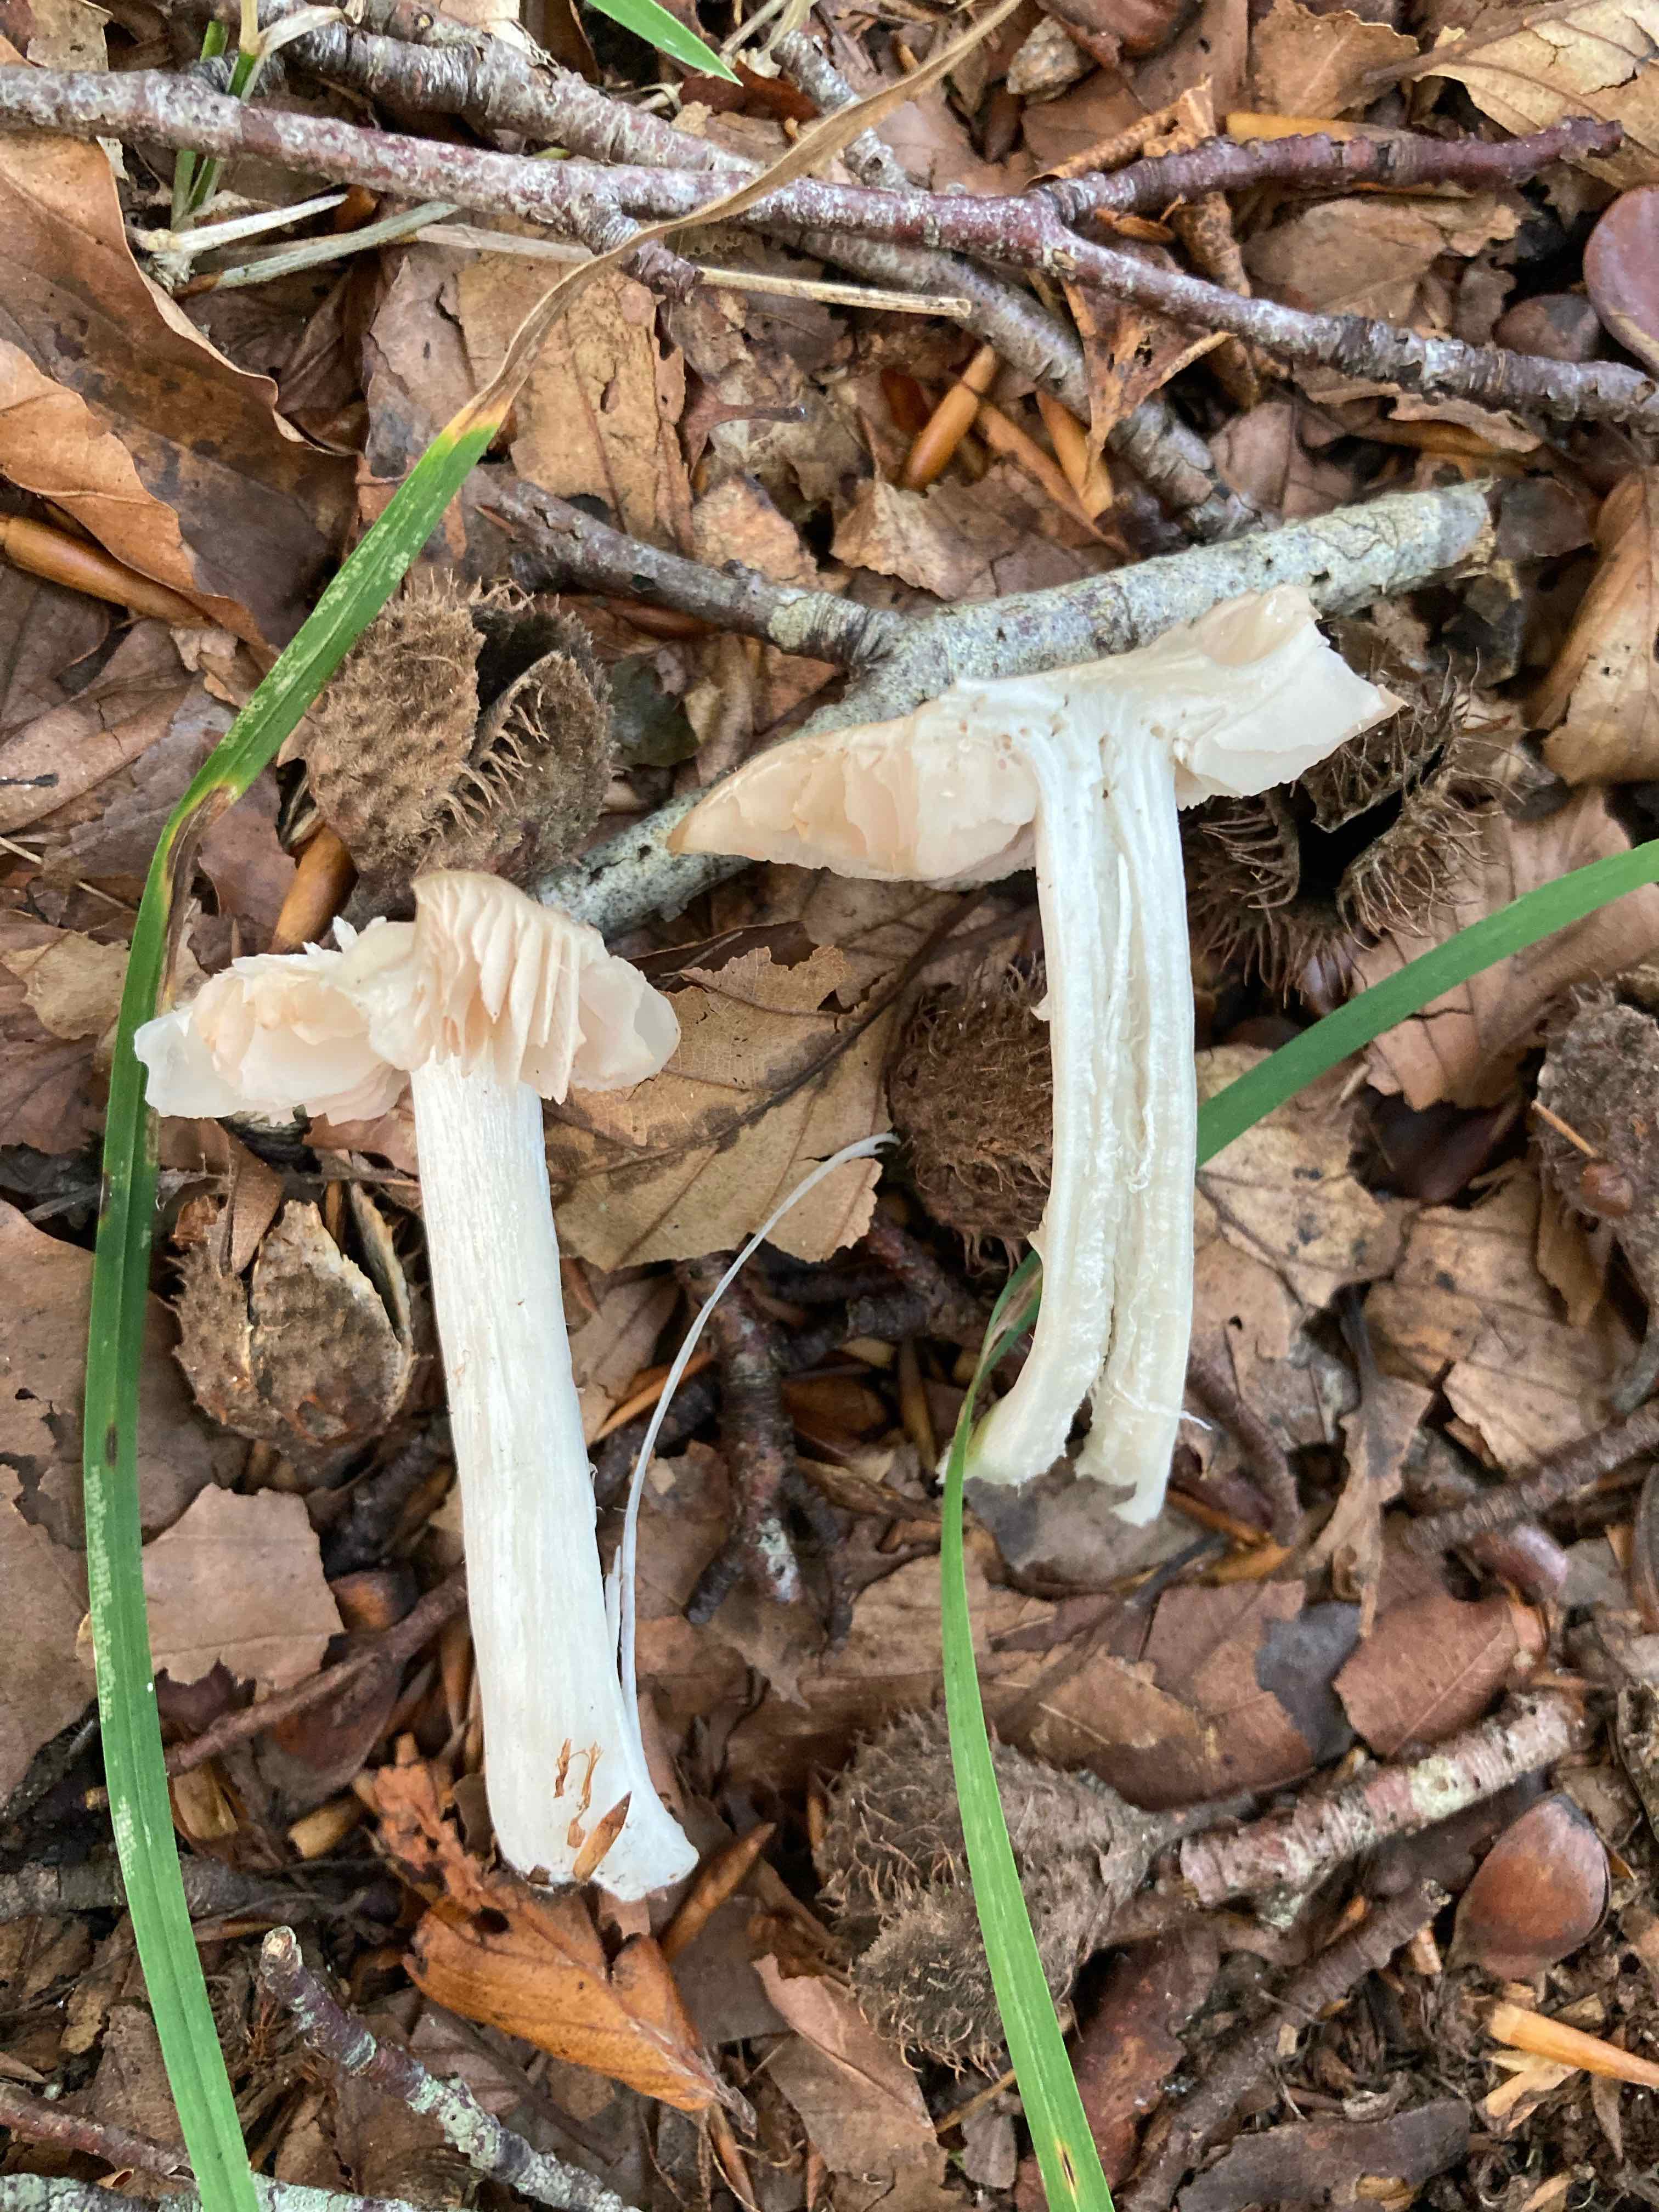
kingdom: Fungi
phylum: Basidiomycota
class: Agaricomycetes
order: Agaricales
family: Entolomataceae
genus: Entoloma
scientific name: Entoloma rhodopolium
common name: skov-rødblad
